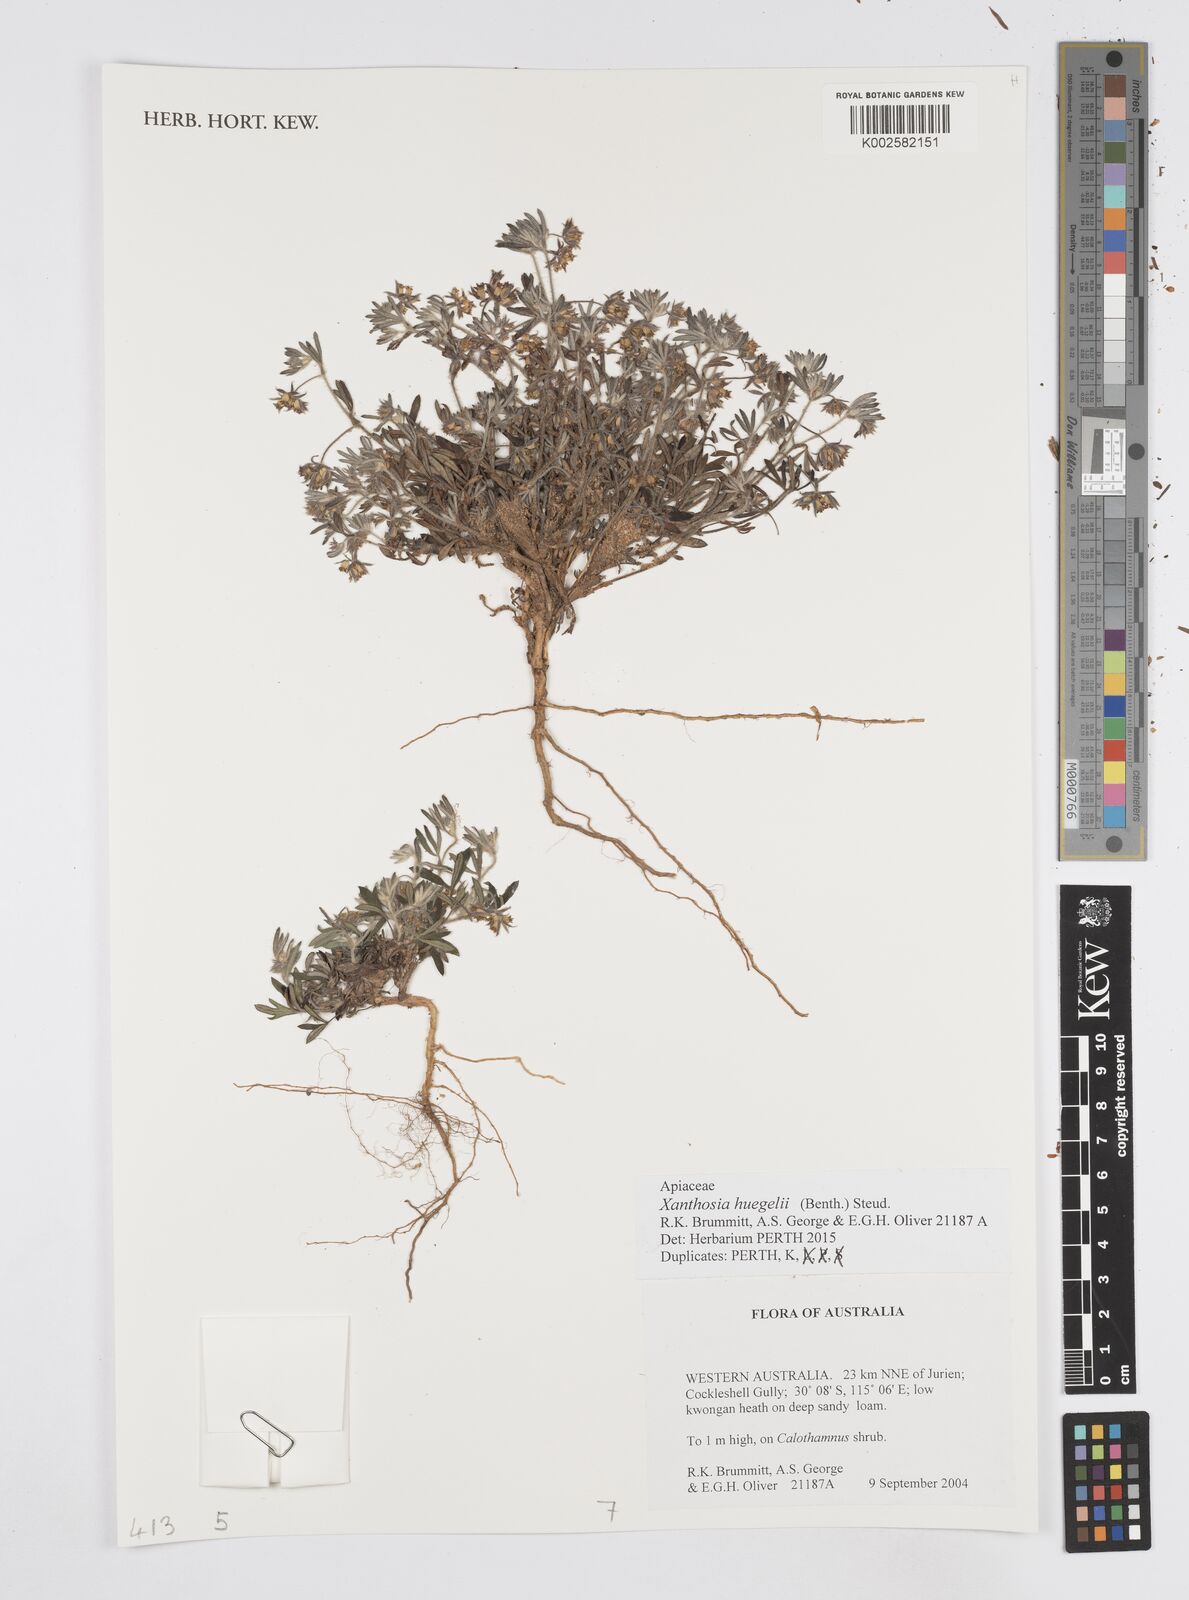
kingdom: Plantae
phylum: Tracheophyta
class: Magnoliopsida
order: Apiales
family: Apiaceae
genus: Xanthosia
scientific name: Xanthosia huegelii
